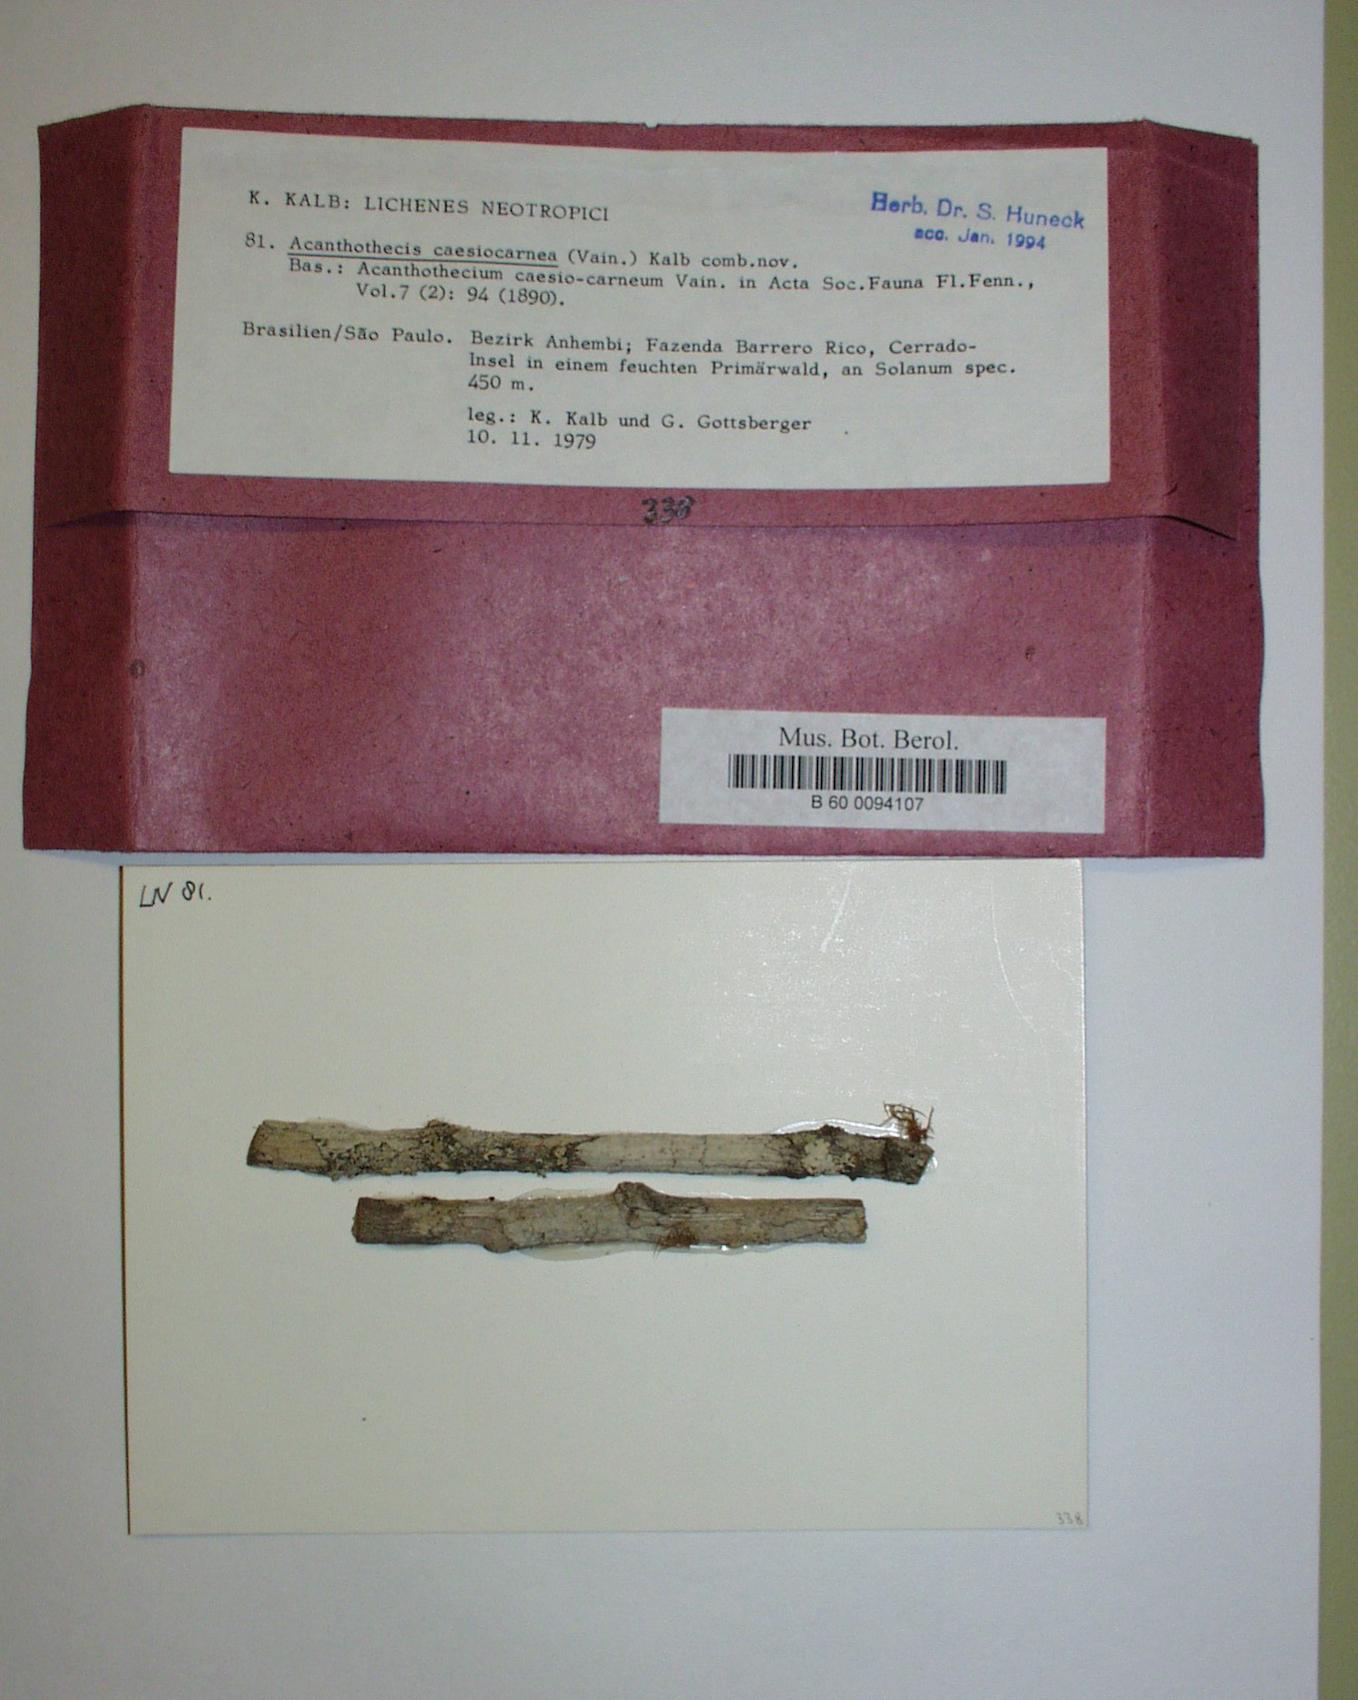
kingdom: Fungi
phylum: Ascomycota
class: Lecanoromycetes
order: Ostropales
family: Graphidaceae
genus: Acanthothecis
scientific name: Acanthothecis caesiocarnea
